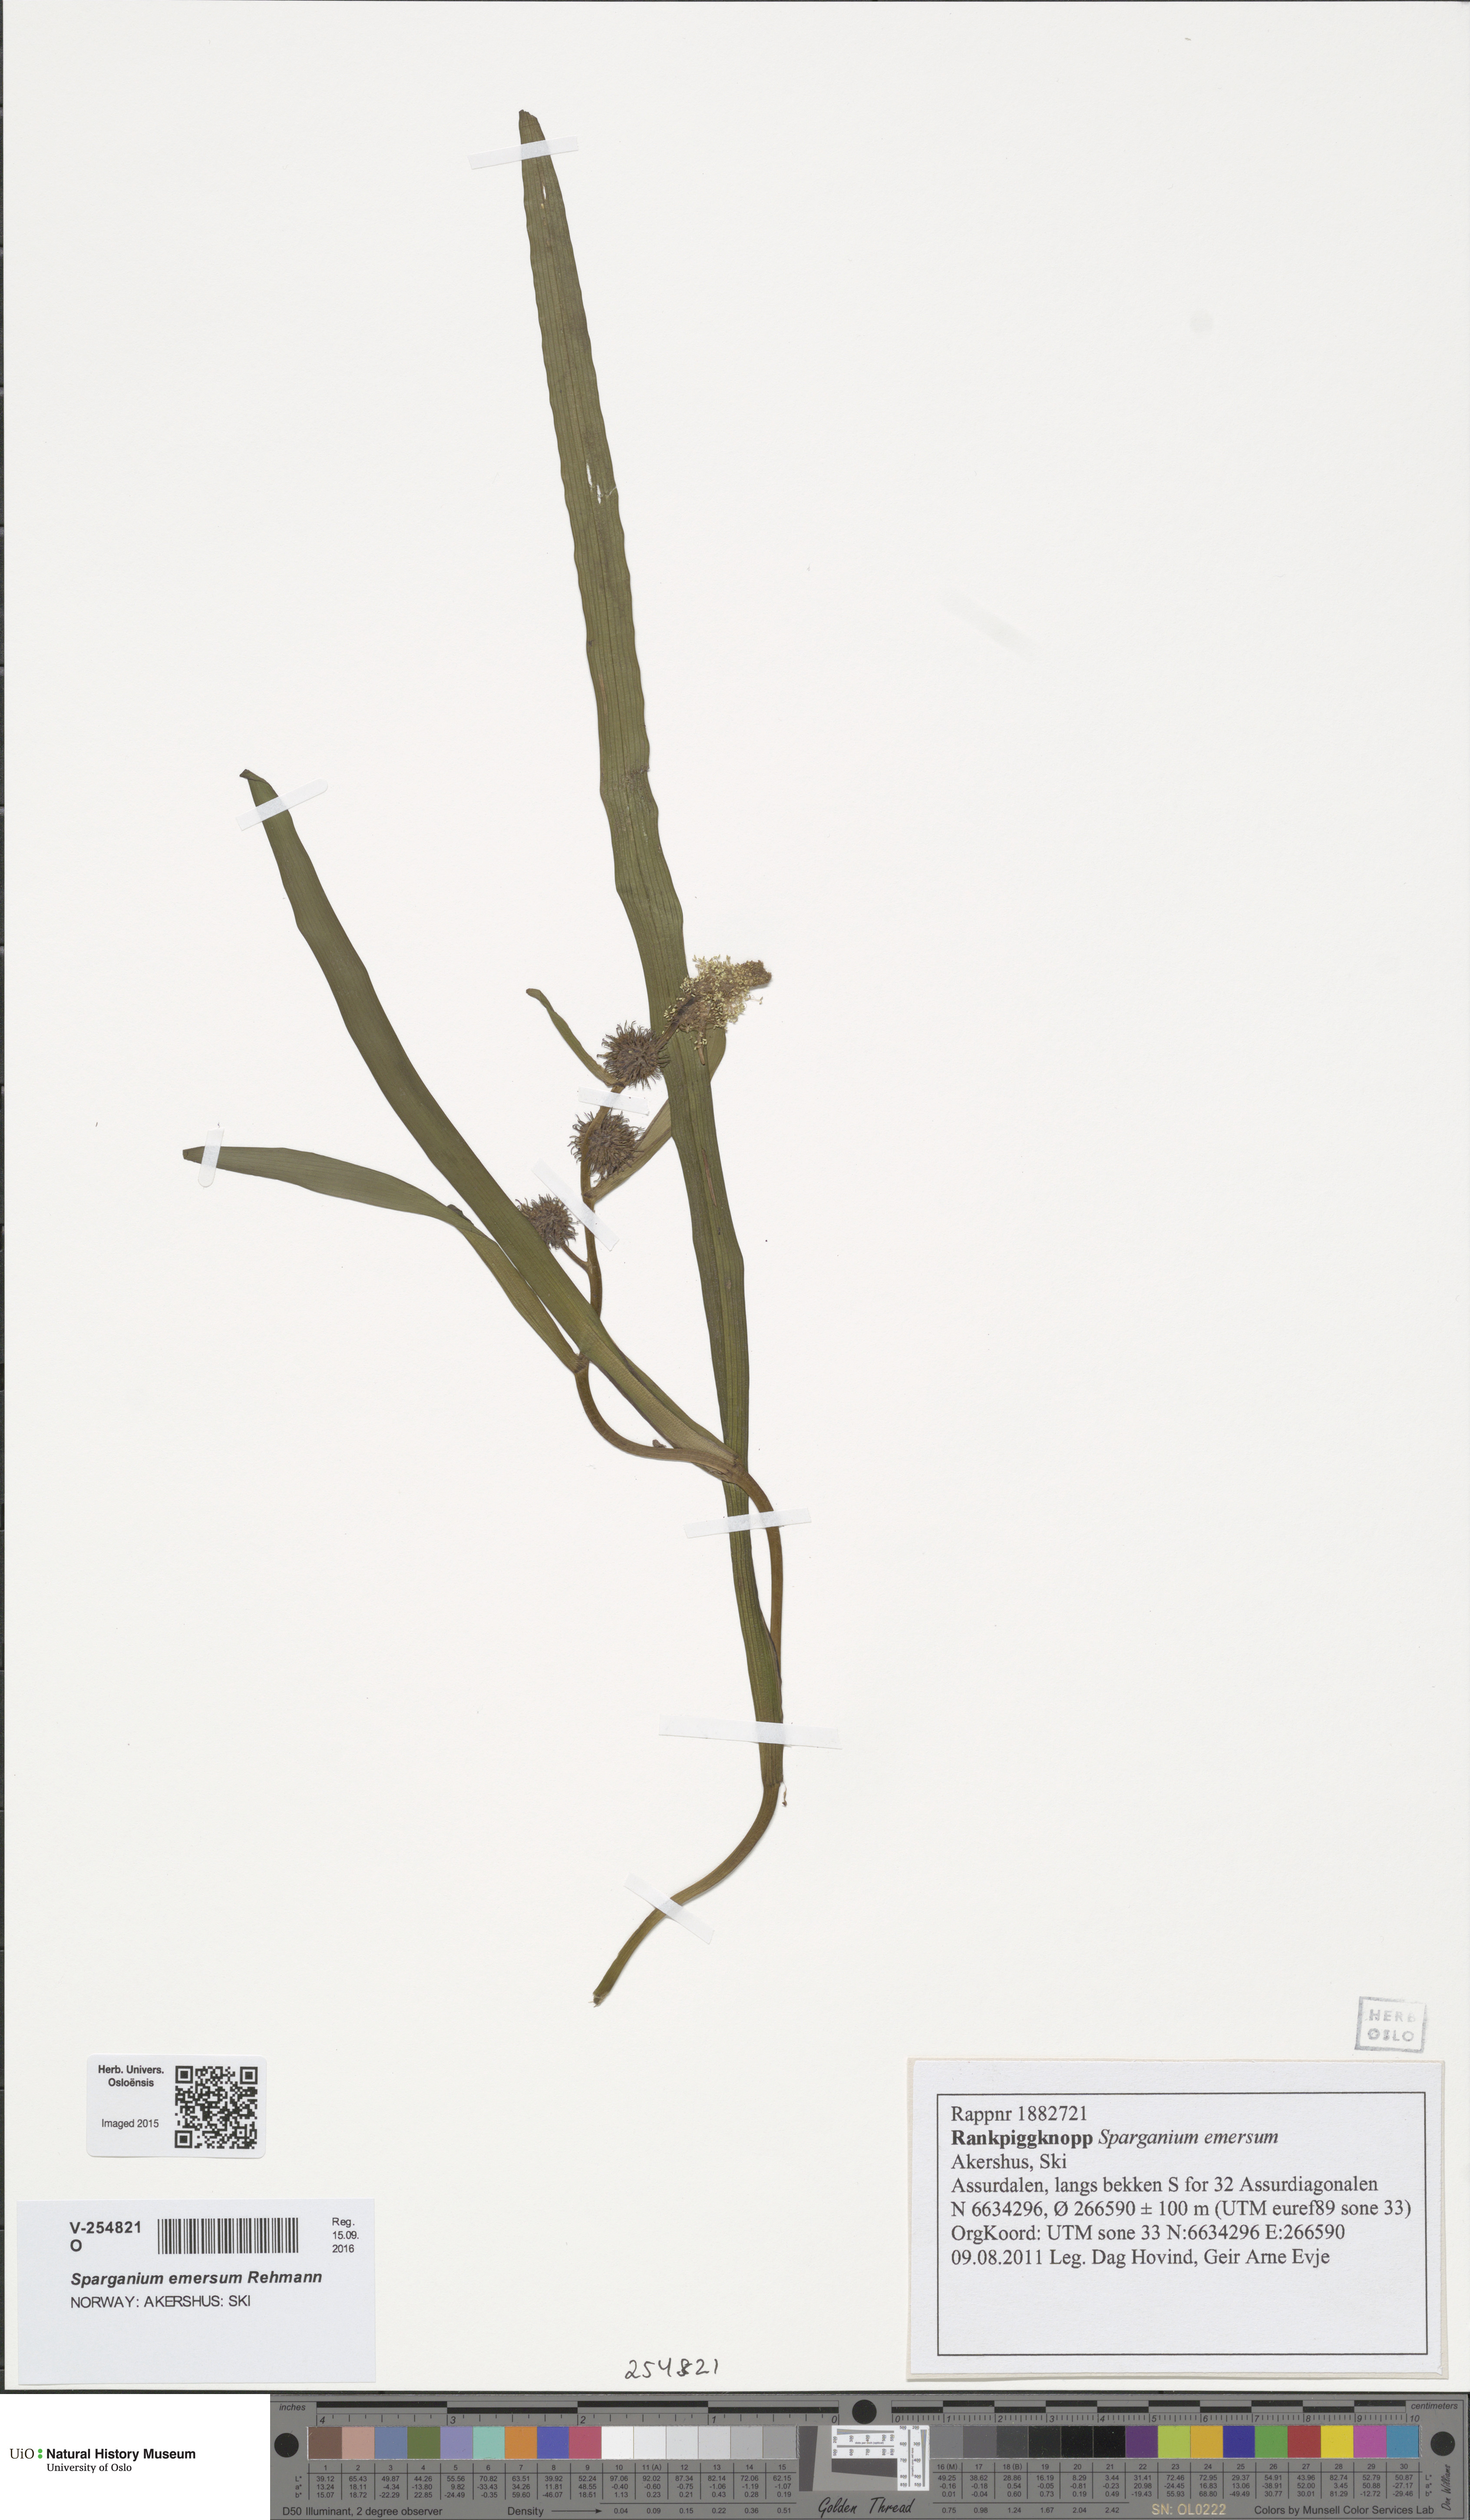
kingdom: Plantae
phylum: Tracheophyta
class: Liliopsida
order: Poales
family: Typhaceae
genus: Sparganium
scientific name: Sparganium emersum
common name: Unbranched bur-reed
